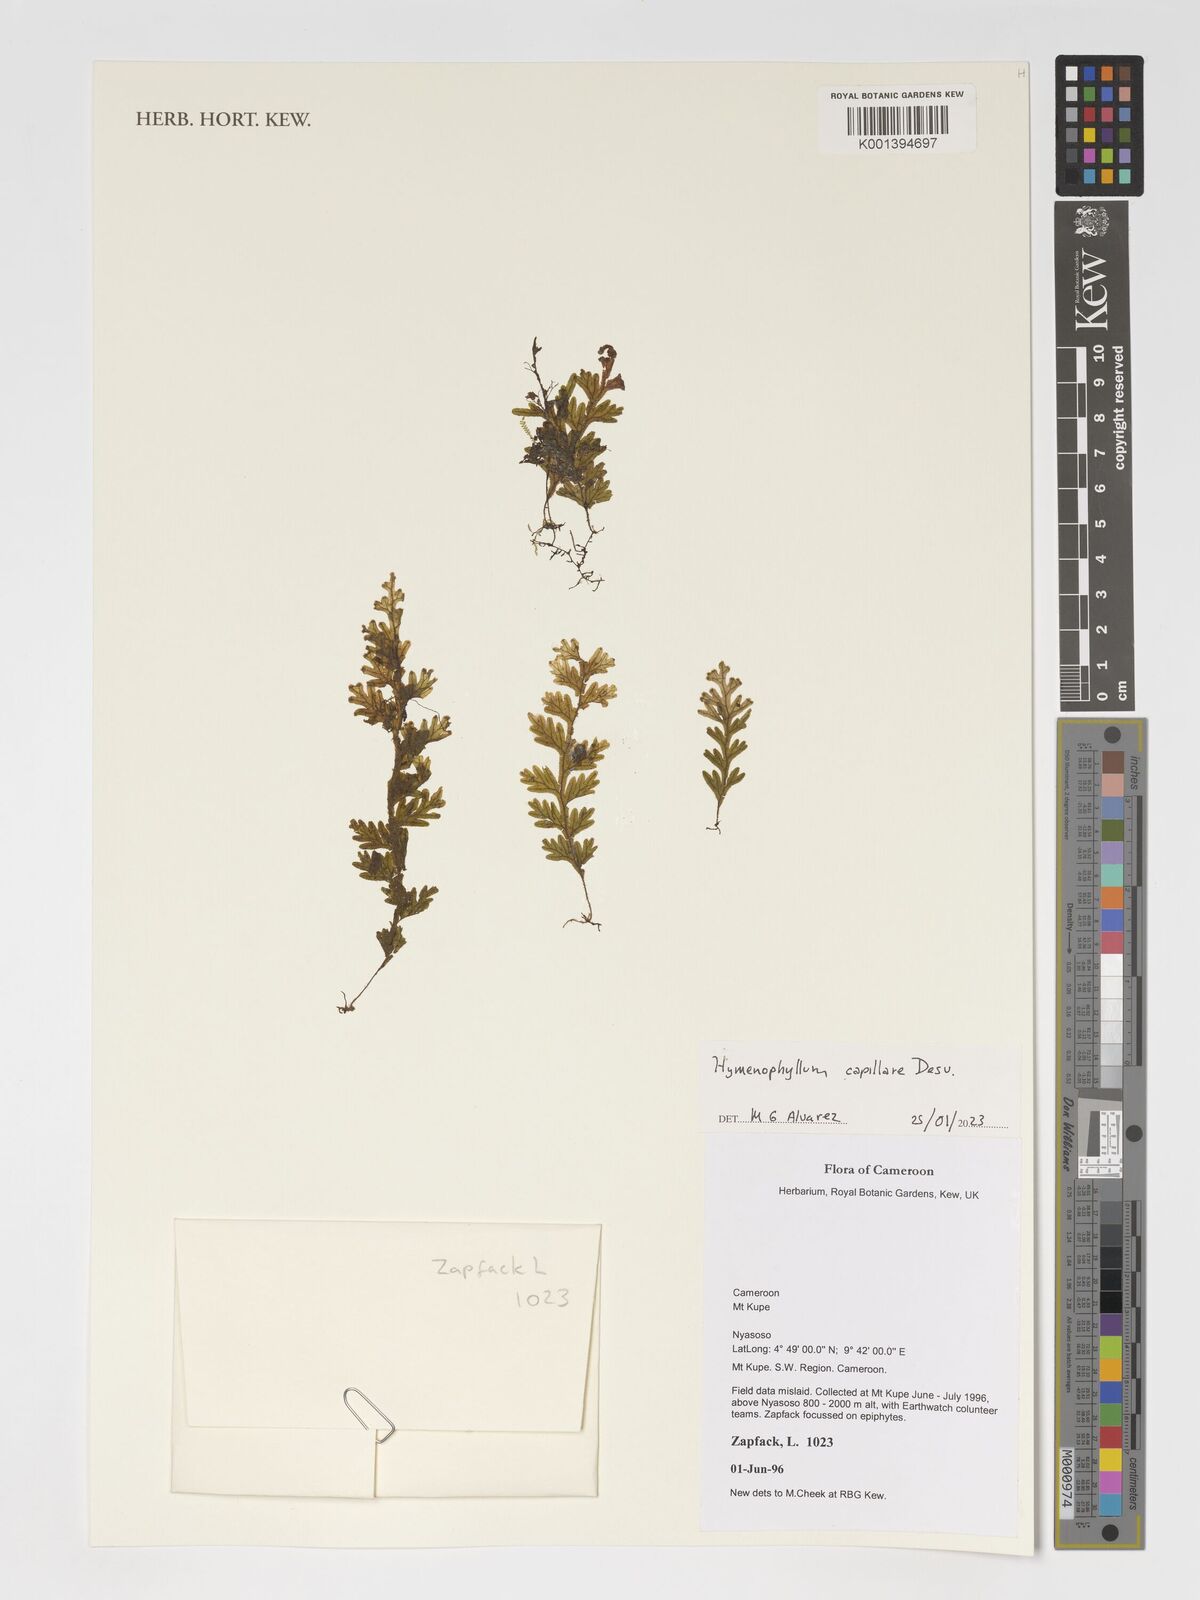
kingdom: Plantae
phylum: Tracheophyta
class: Polypodiopsida
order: Hymenophyllales
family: Hymenophyllaceae
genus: Hymenophyllum
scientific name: Hymenophyllum capillare
